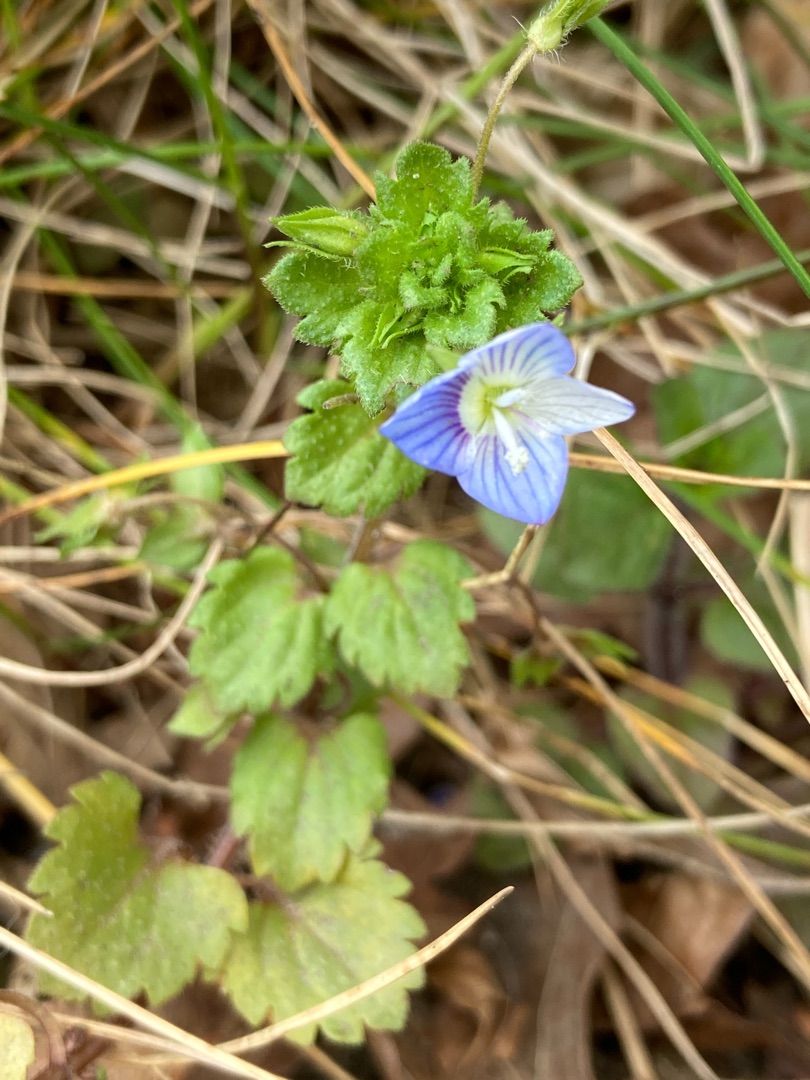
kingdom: Plantae
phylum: Tracheophyta
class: Magnoliopsida
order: Lamiales
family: Plantaginaceae
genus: Veronica
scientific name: Veronica persica
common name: Storkronet ærenpris
